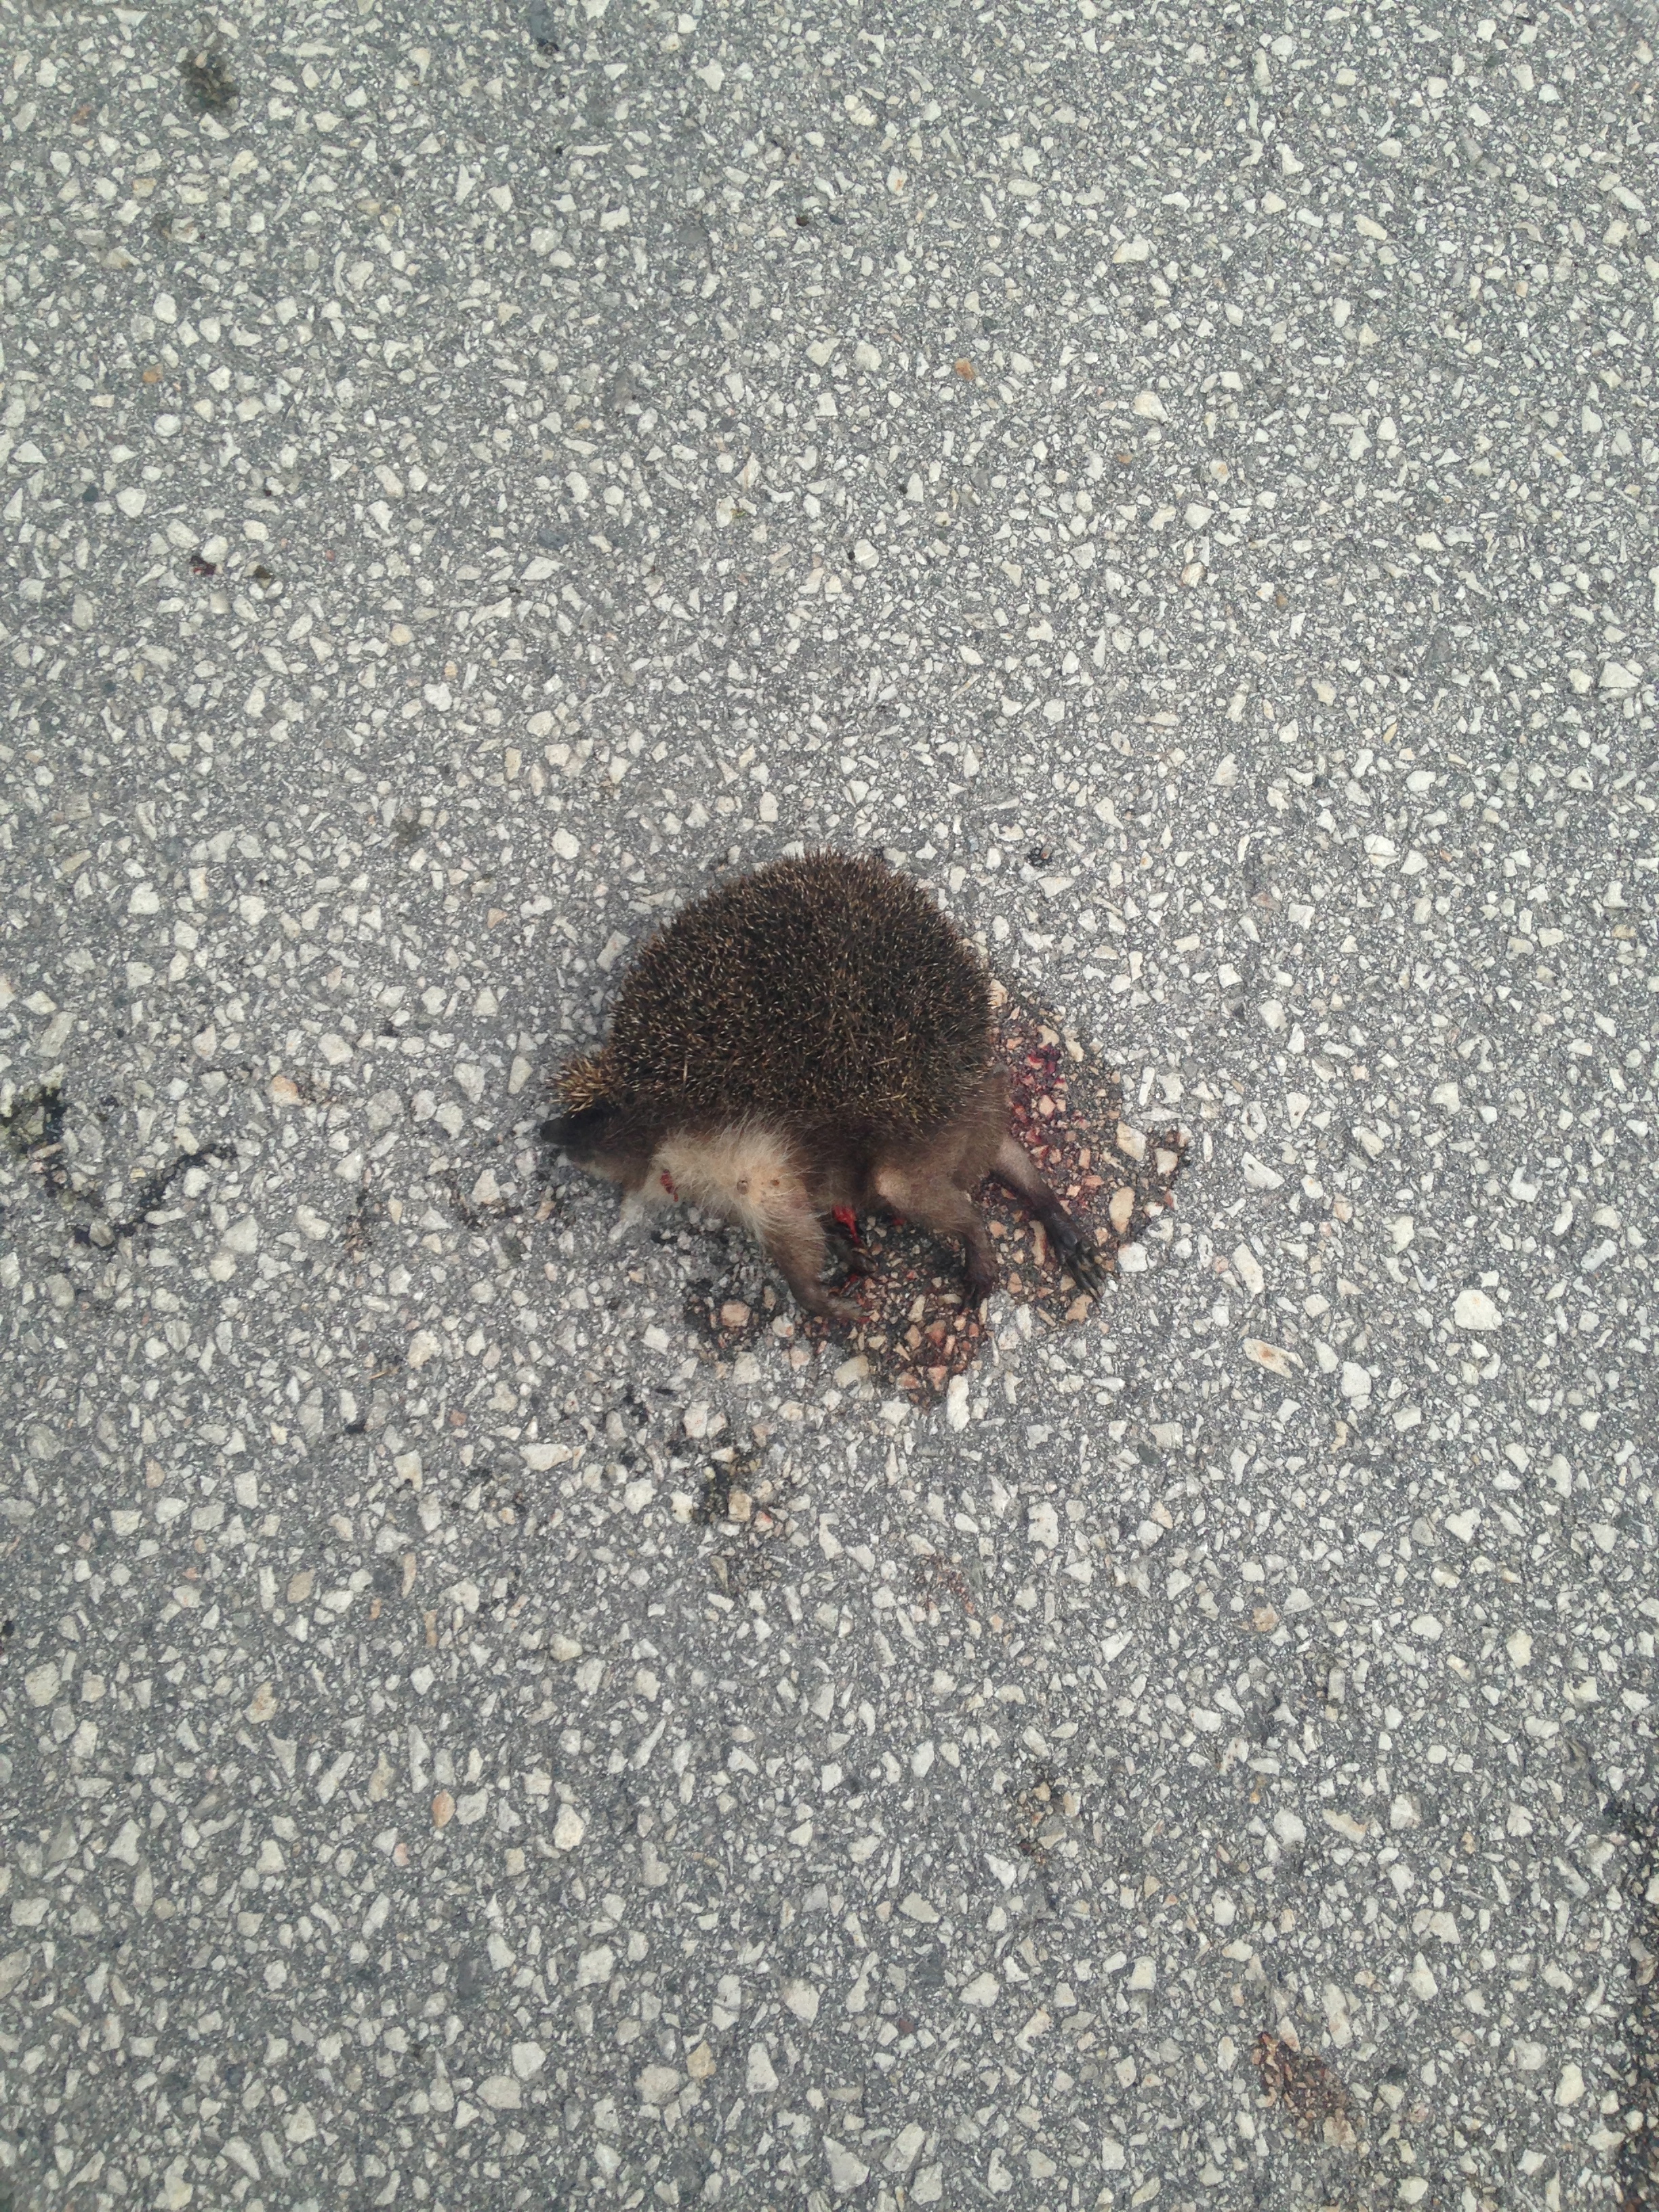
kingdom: Animalia
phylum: Chordata
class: Mammalia
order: Erinaceomorpha
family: Erinaceidae
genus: Erinaceus
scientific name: Erinaceus
